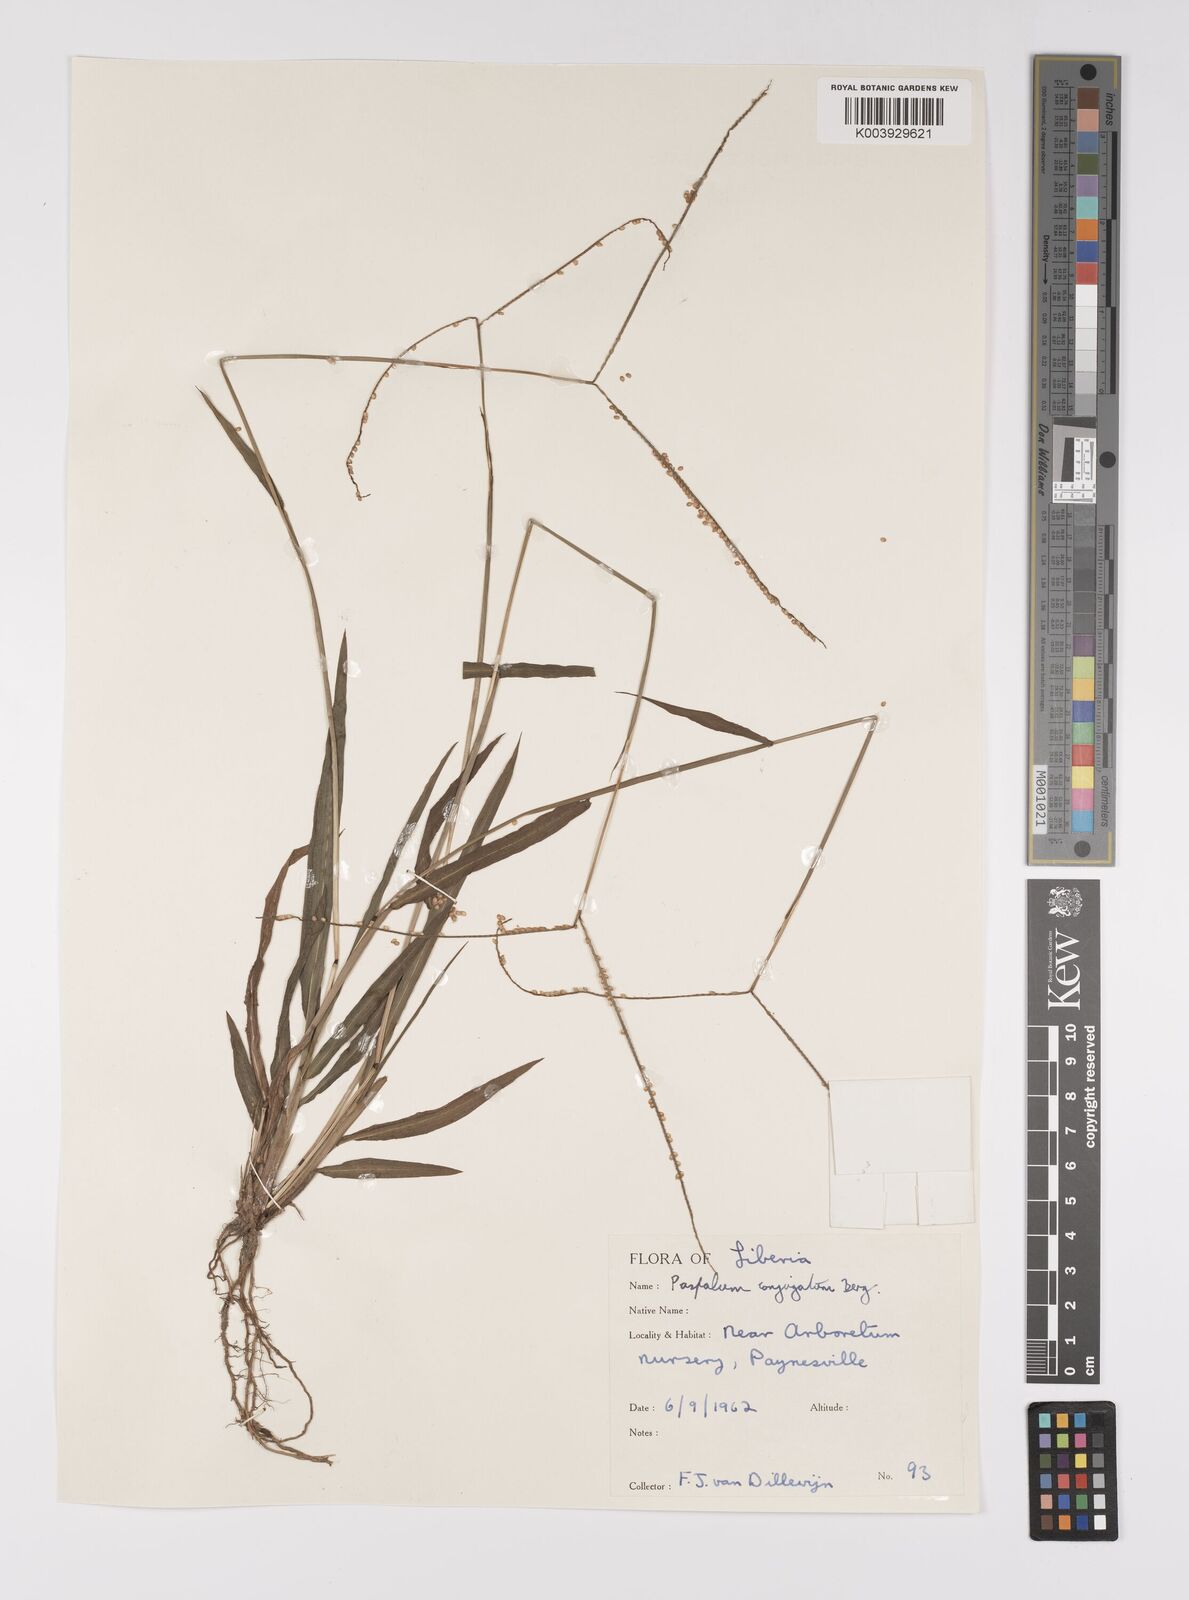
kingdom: Plantae
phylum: Tracheophyta
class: Liliopsida
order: Poales
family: Poaceae
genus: Paspalum
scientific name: Paspalum conjugatum
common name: Hilograss
